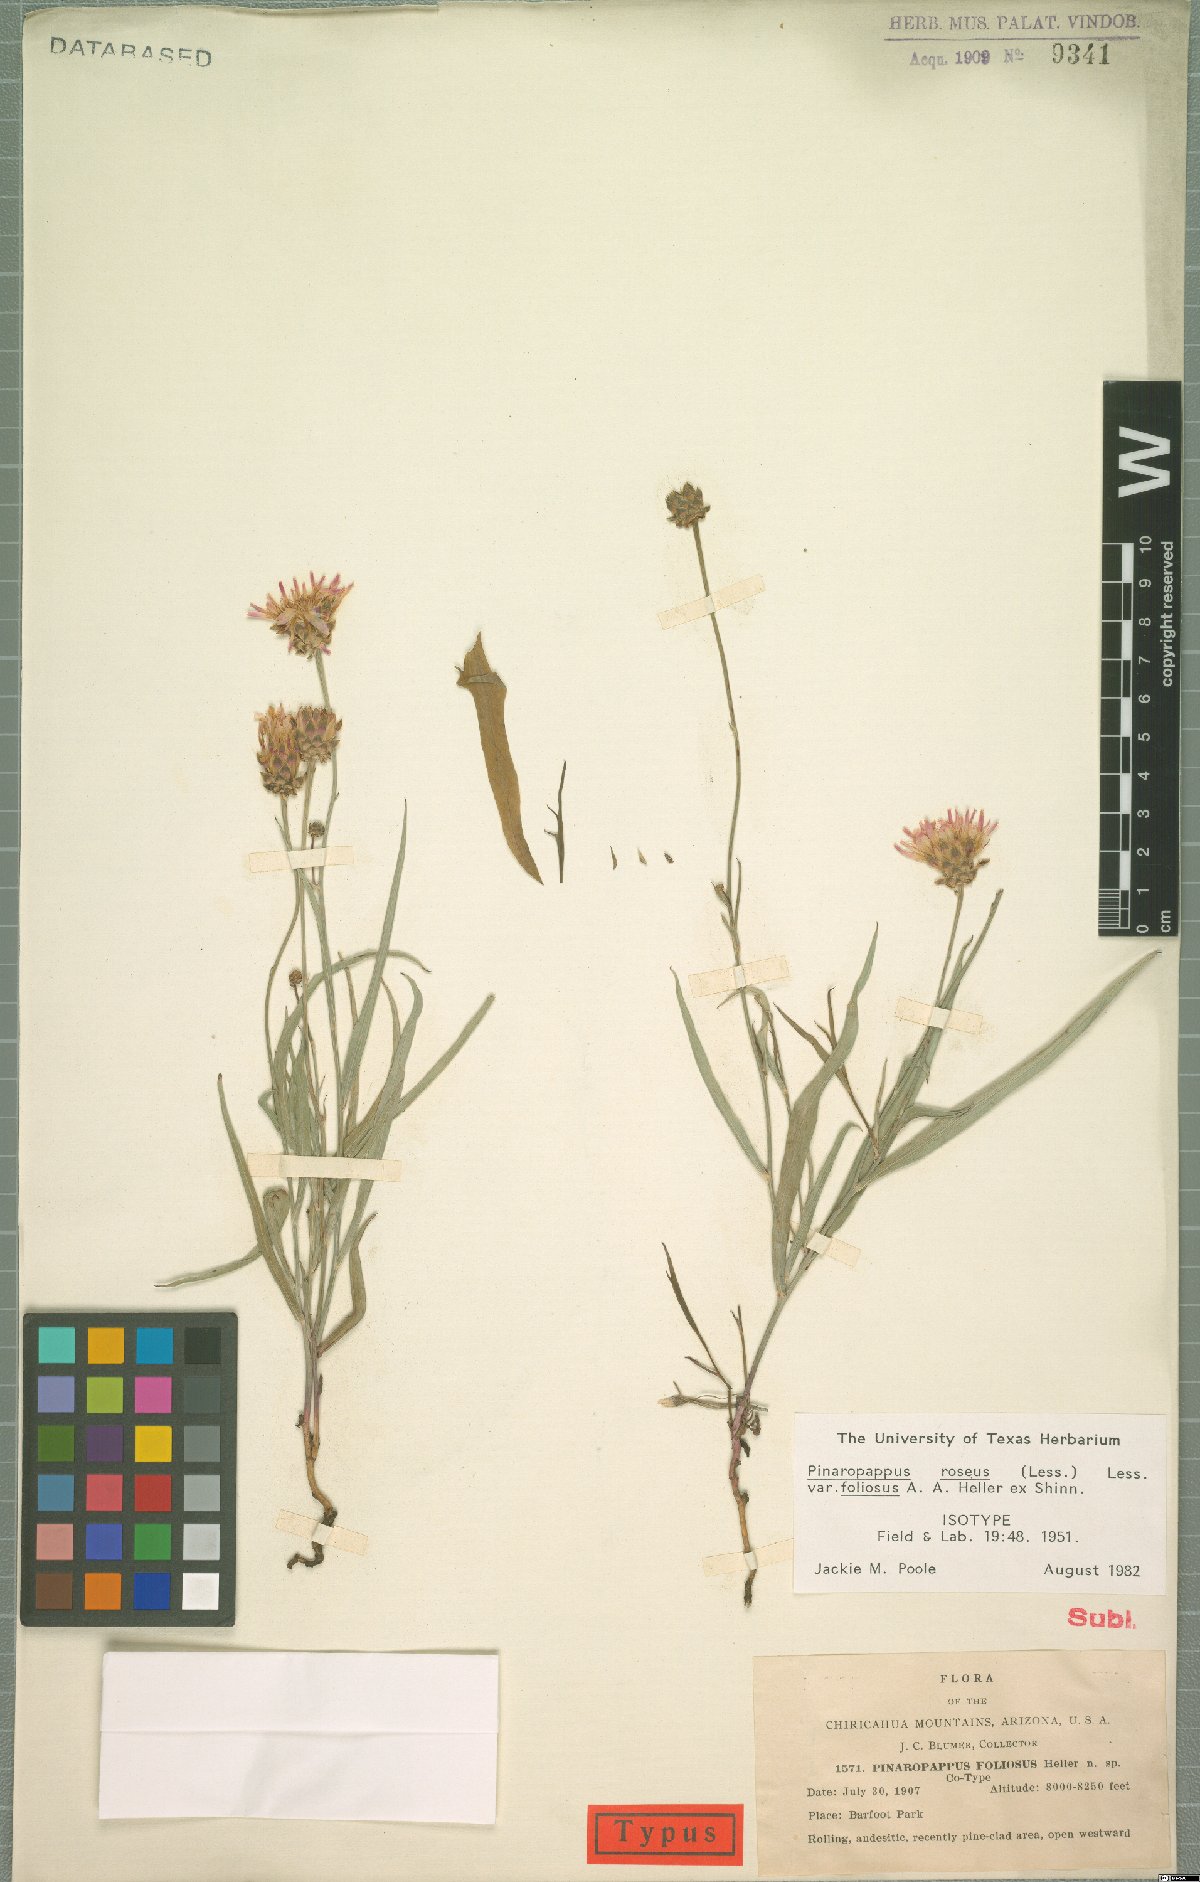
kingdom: Plantae
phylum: Tracheophyta
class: Magnoliopsida
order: Asterales
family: Asteraceae
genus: Pinaropappus
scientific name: Pinaropappus roseus
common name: Rock-lettuce
